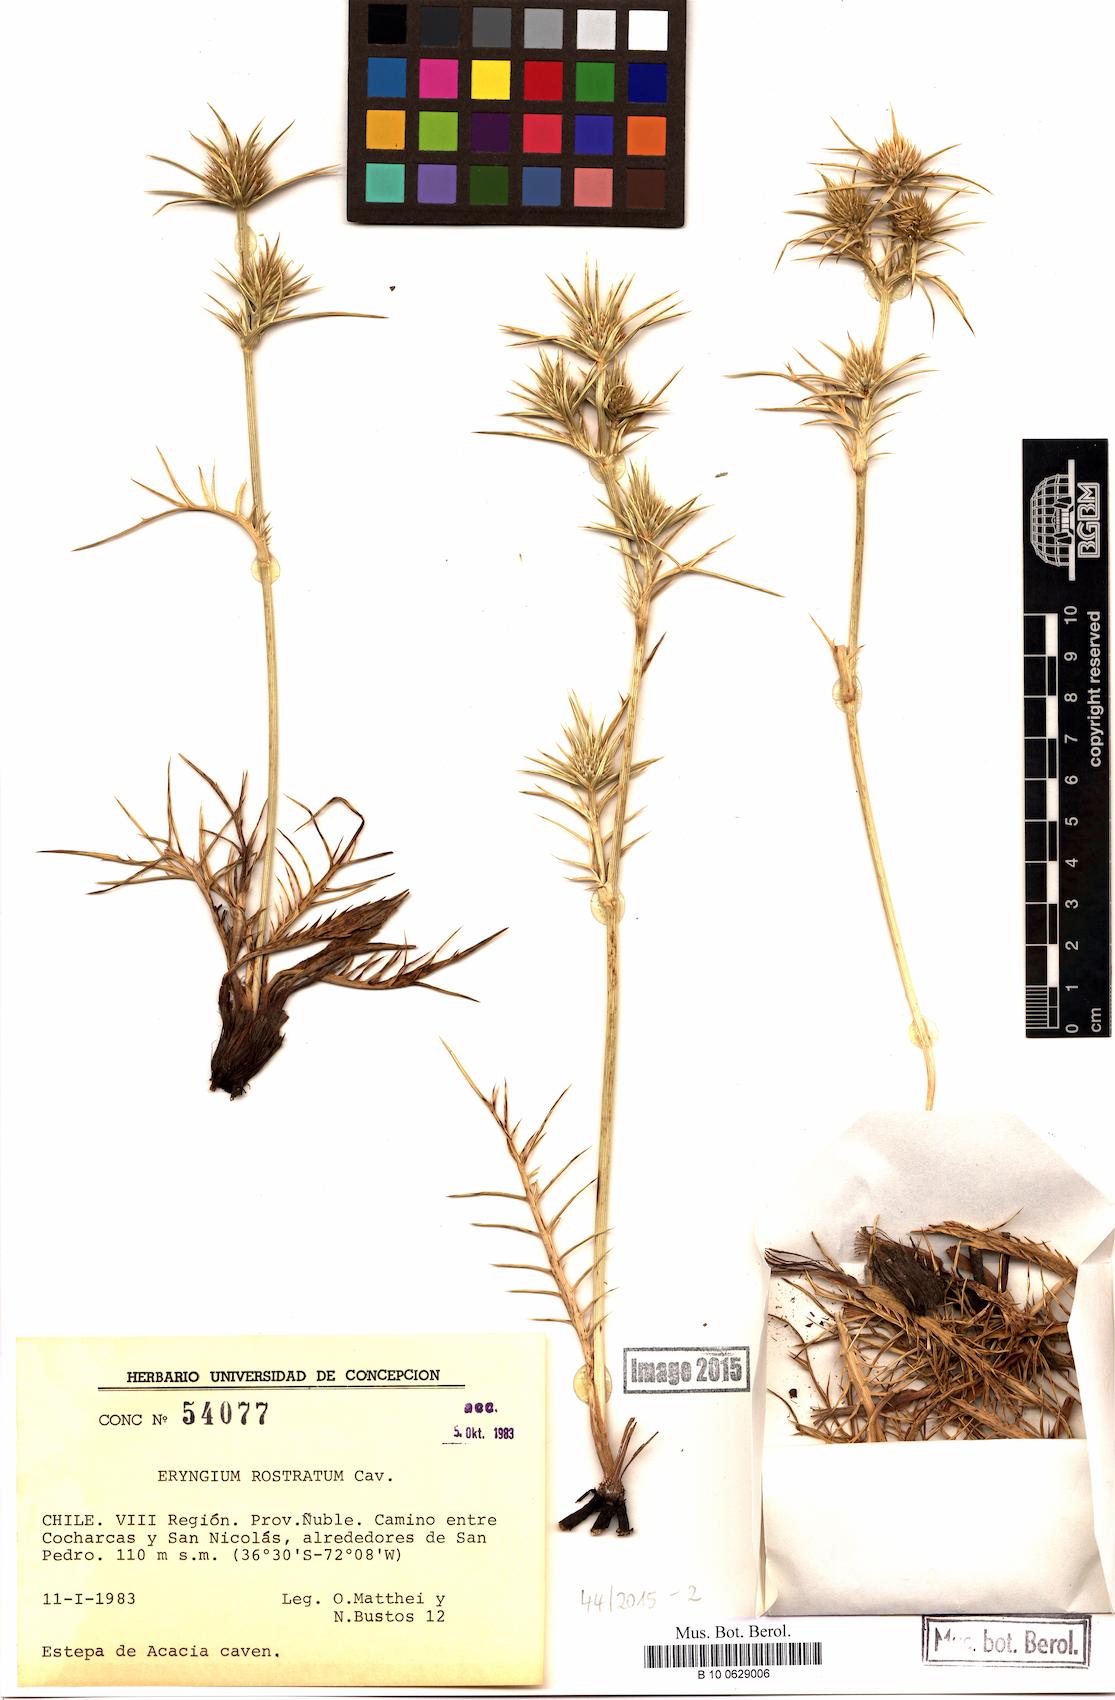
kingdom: Plantae
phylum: Tracheophyta
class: Magnoliopsida
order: Apiales
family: Apiaceae
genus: Eryngium
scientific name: Eryngium rostratum
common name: Blue eryngo
